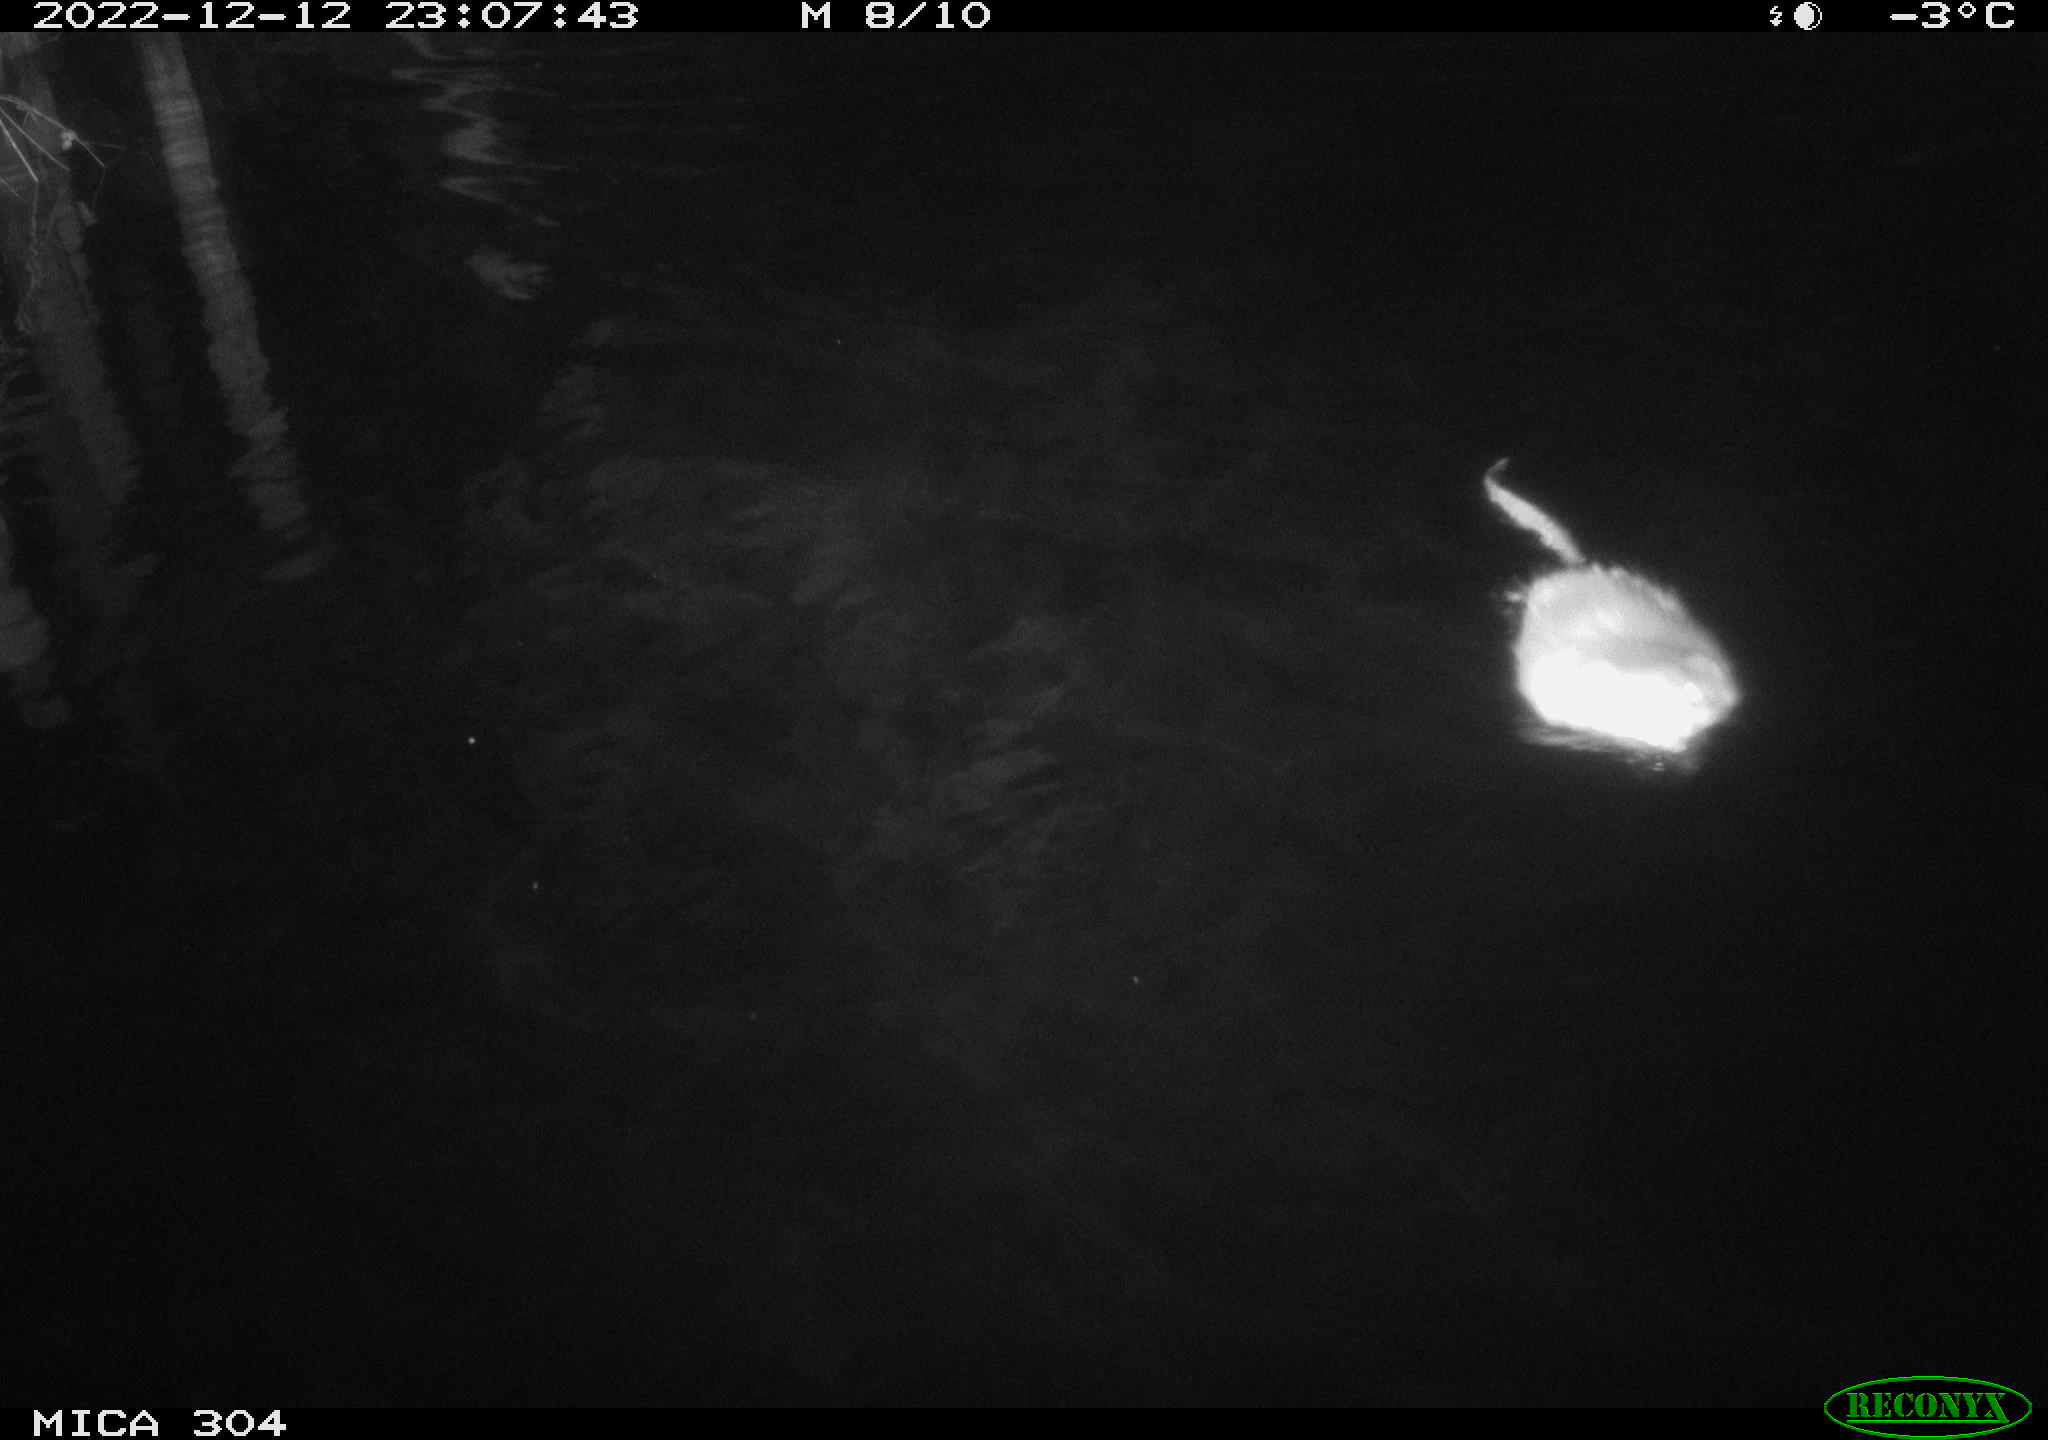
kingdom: Animalia
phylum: Chordata
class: Aves
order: Anseriformes
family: Anatidae
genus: Anas
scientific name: Anas
